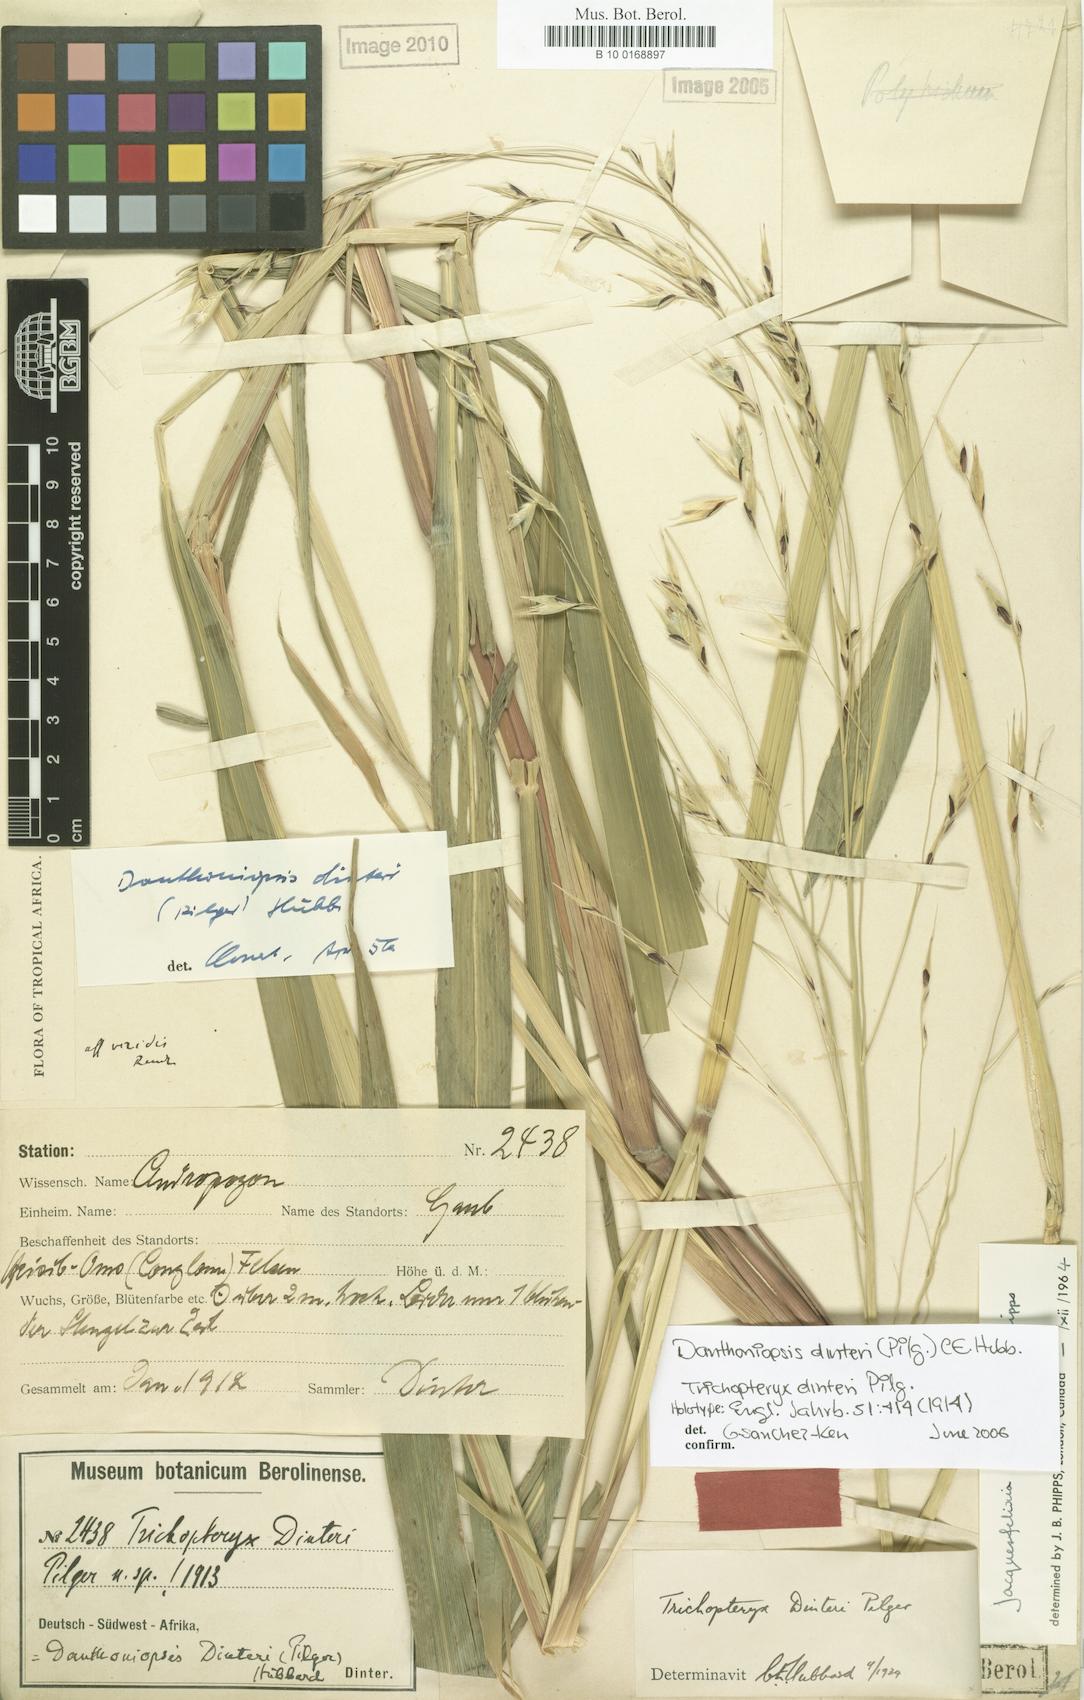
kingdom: Plantae
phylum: Tracheophyta
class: Liliopsida
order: Poales
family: Poaceae
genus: Danthoniopsis
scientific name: Danthoniopsis dinteri
